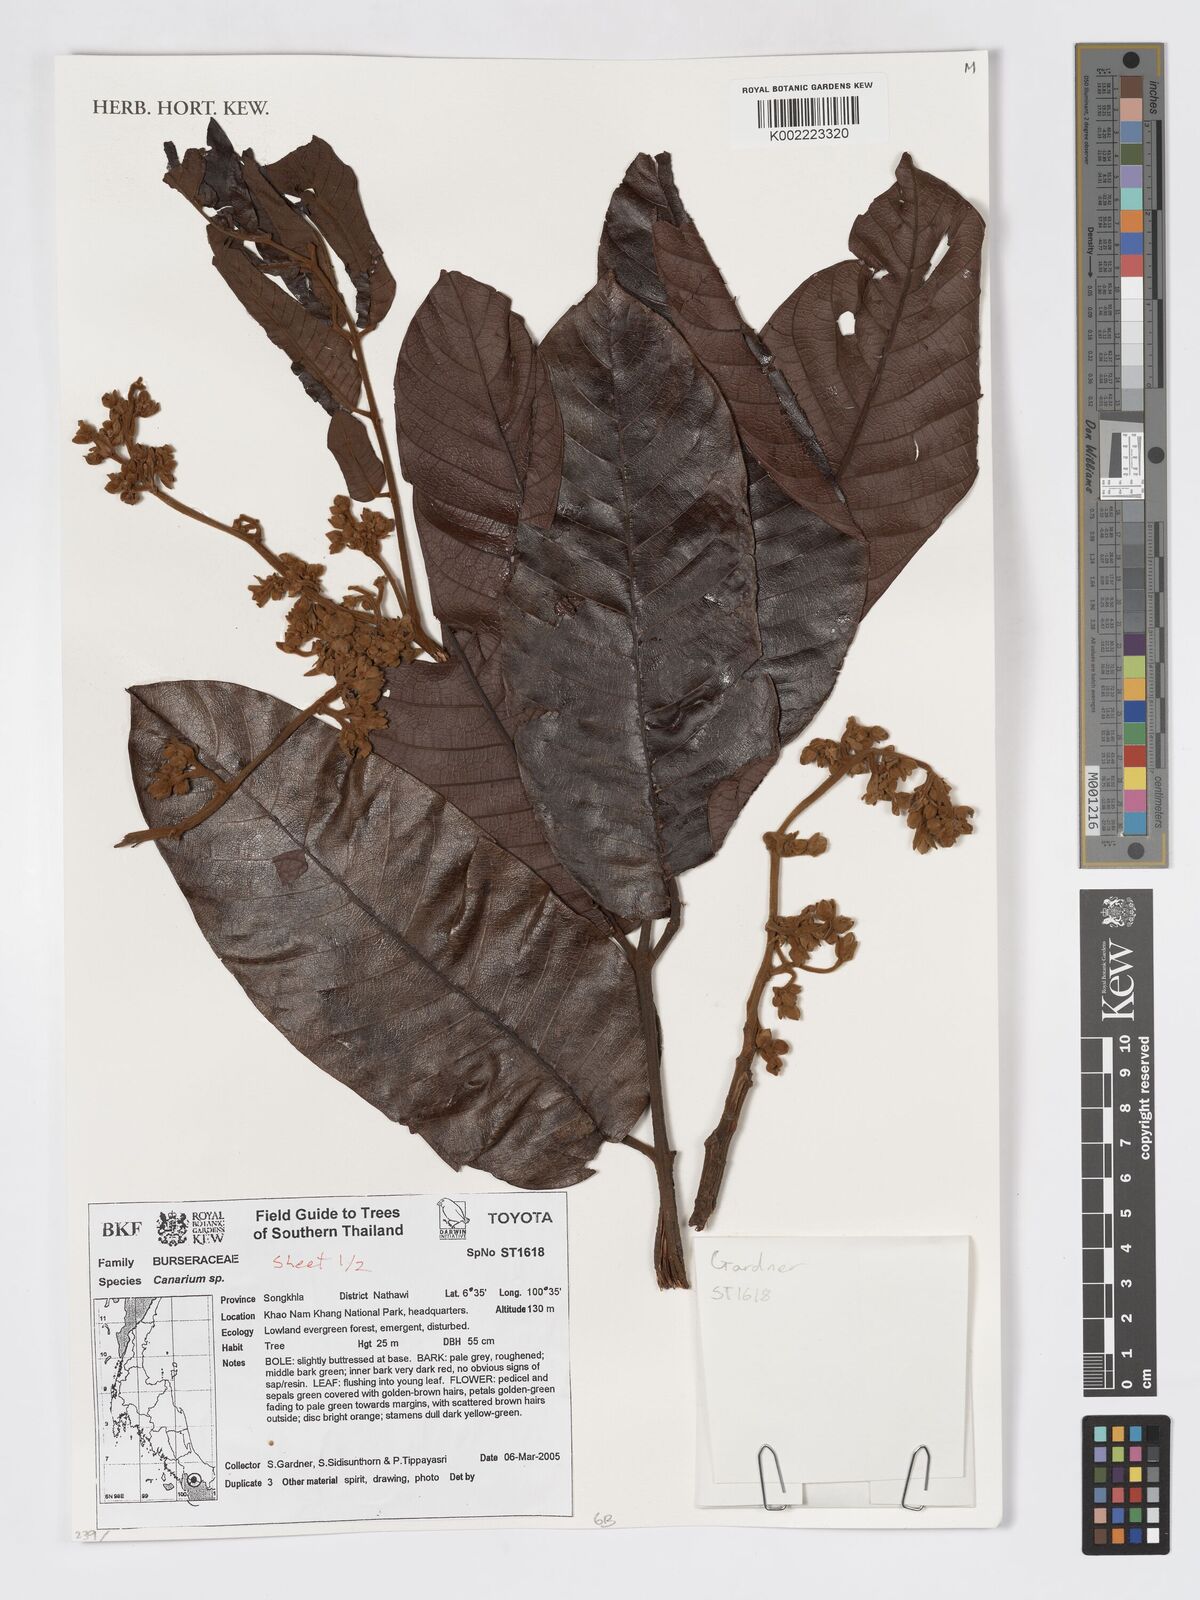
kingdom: Plantae
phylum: Tracheophyta
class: Magnoliopsida
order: Sapindales
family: Burseraceae
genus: Canarium
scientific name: Canarium
